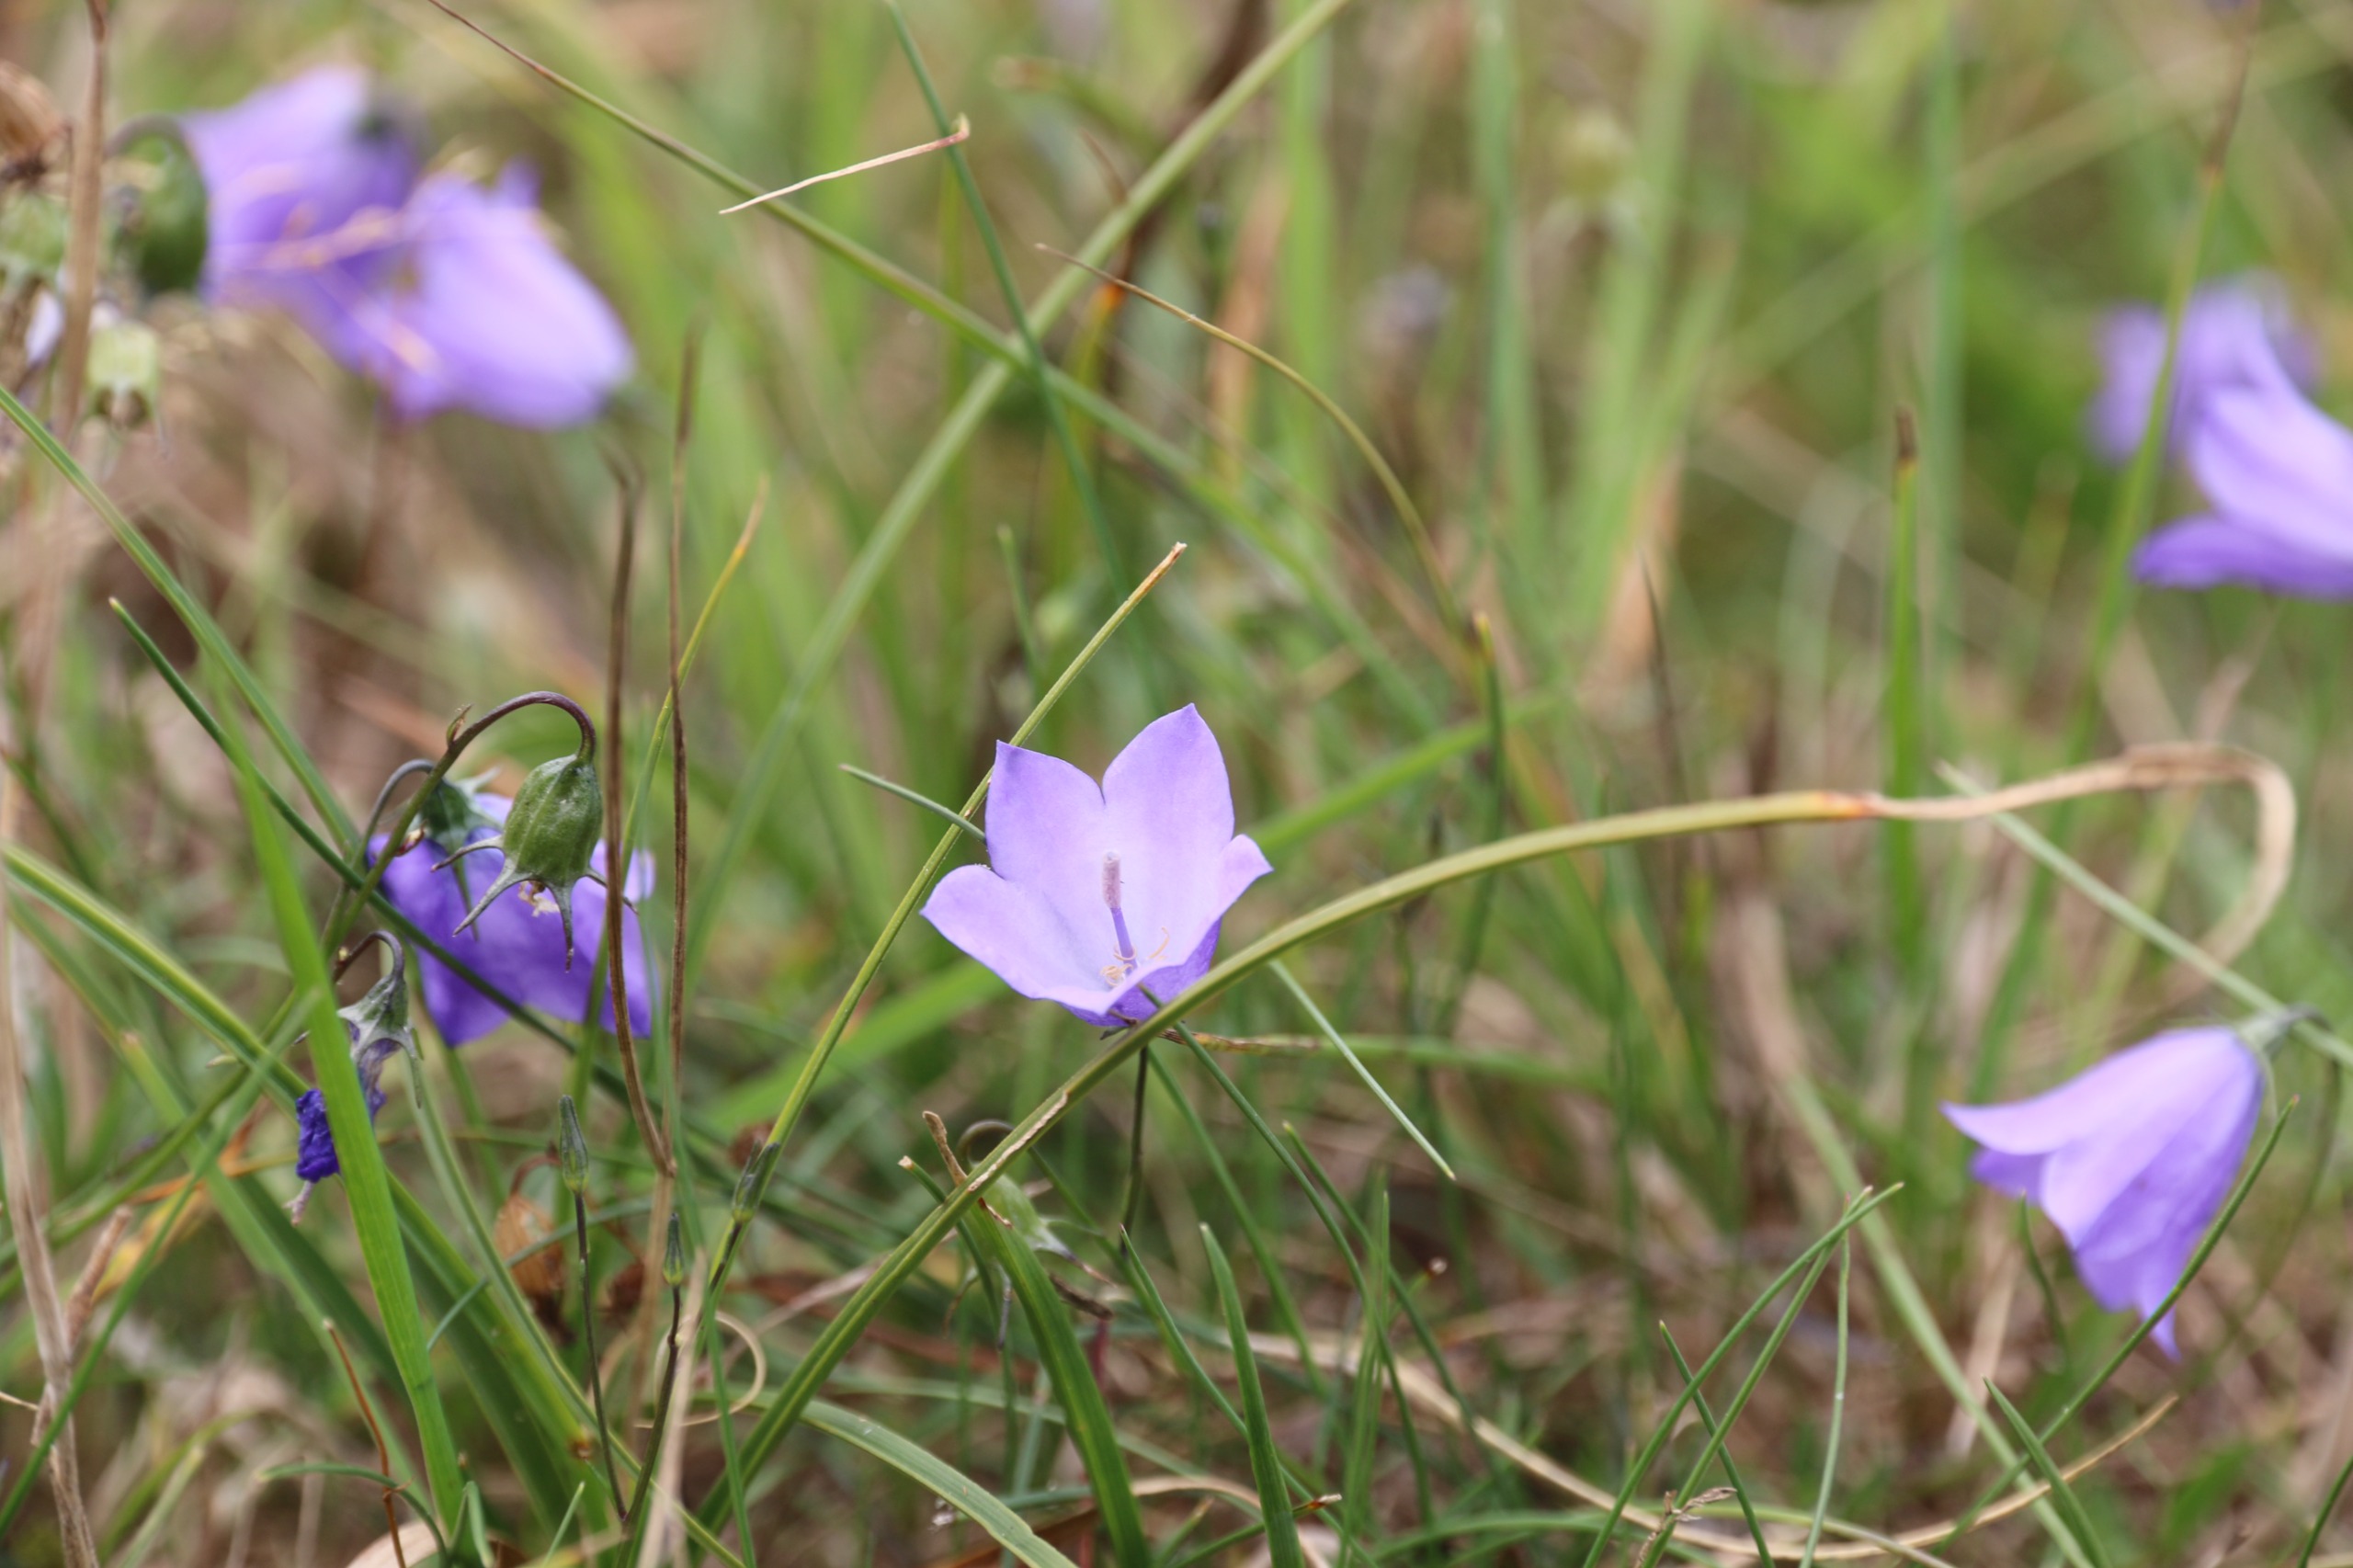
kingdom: Plantae
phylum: Tracheophyta
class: Magnoliopsida
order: Asterales
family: Campanulaceae
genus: Campanula
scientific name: Campanula rotundifolia
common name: Liden klokke
